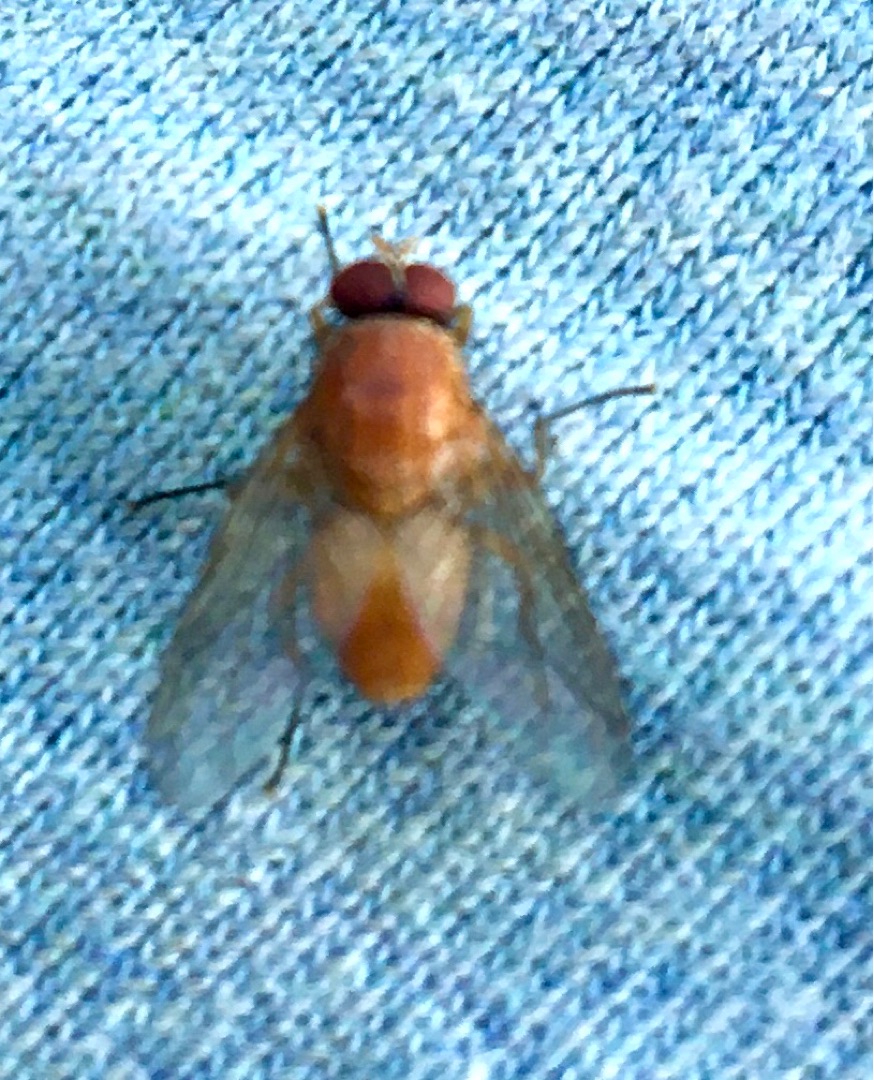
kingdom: Animalia
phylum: Arthropoda
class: Insecta
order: Diptera
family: Muscidae
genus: Phaonia
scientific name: Phaonia pallida
